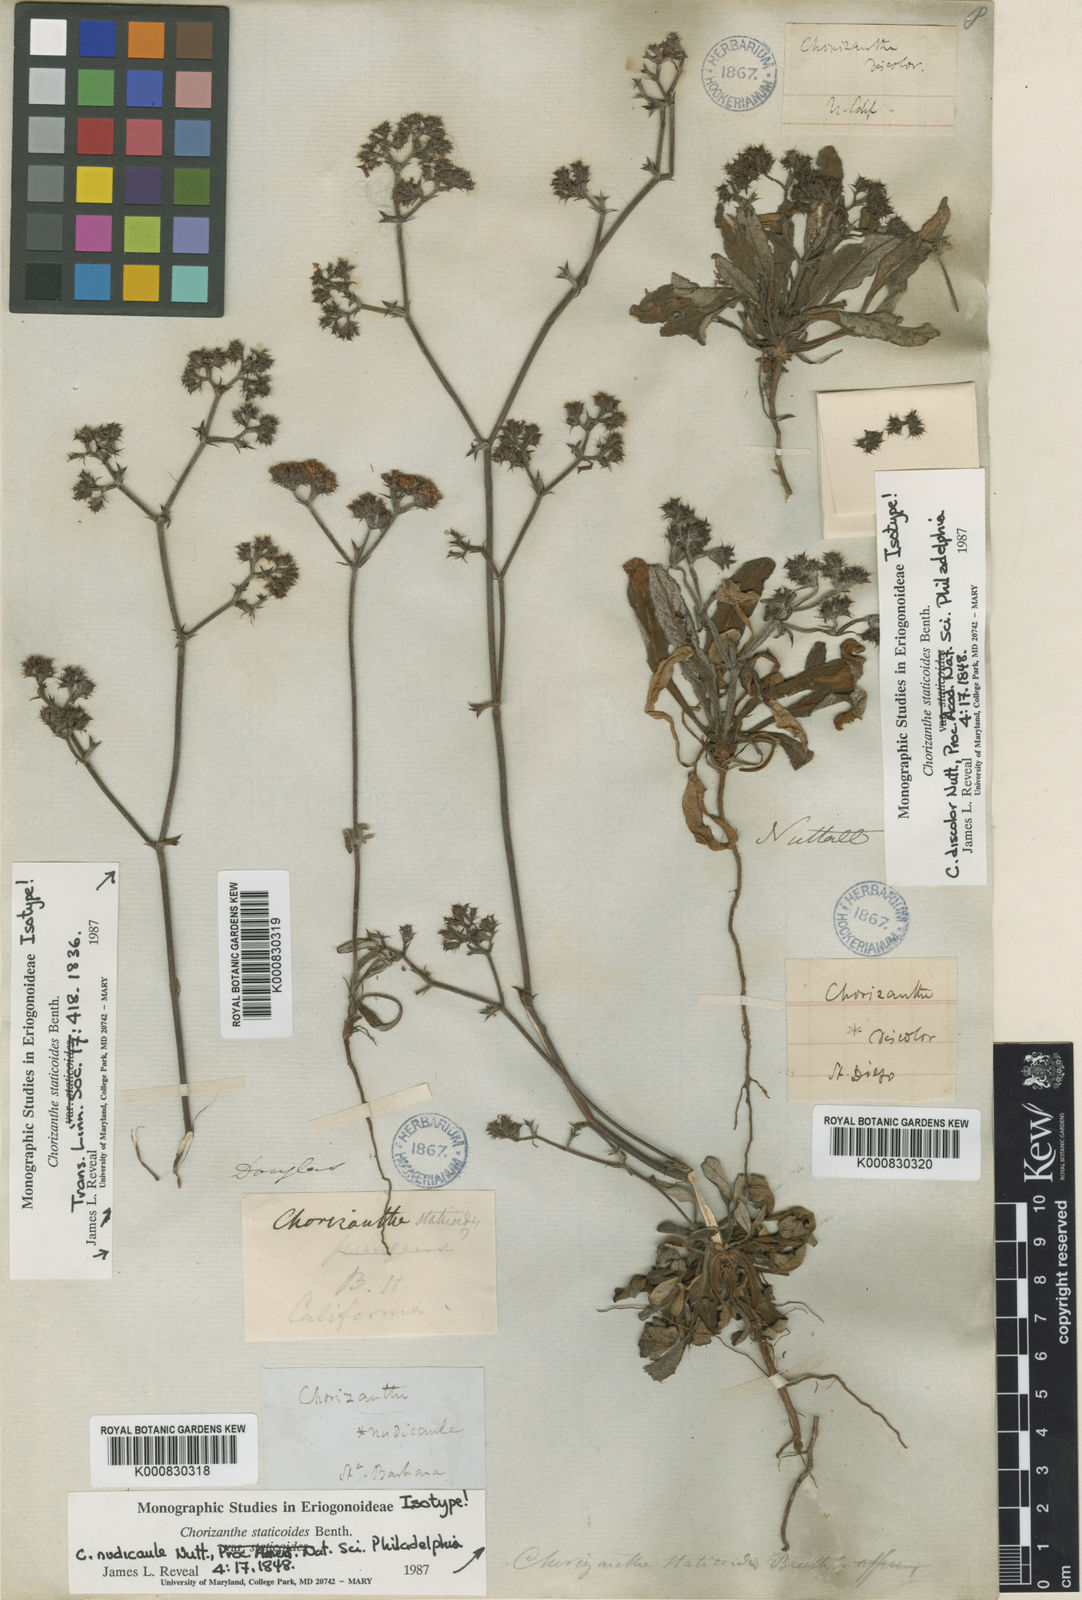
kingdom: Plantae
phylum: Tracheophyta
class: Magnoliopsida
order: Caryophyllales
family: Polygonaceae
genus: Chorizanthe
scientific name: Chorizanthe staticoides
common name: Turkish rugging
